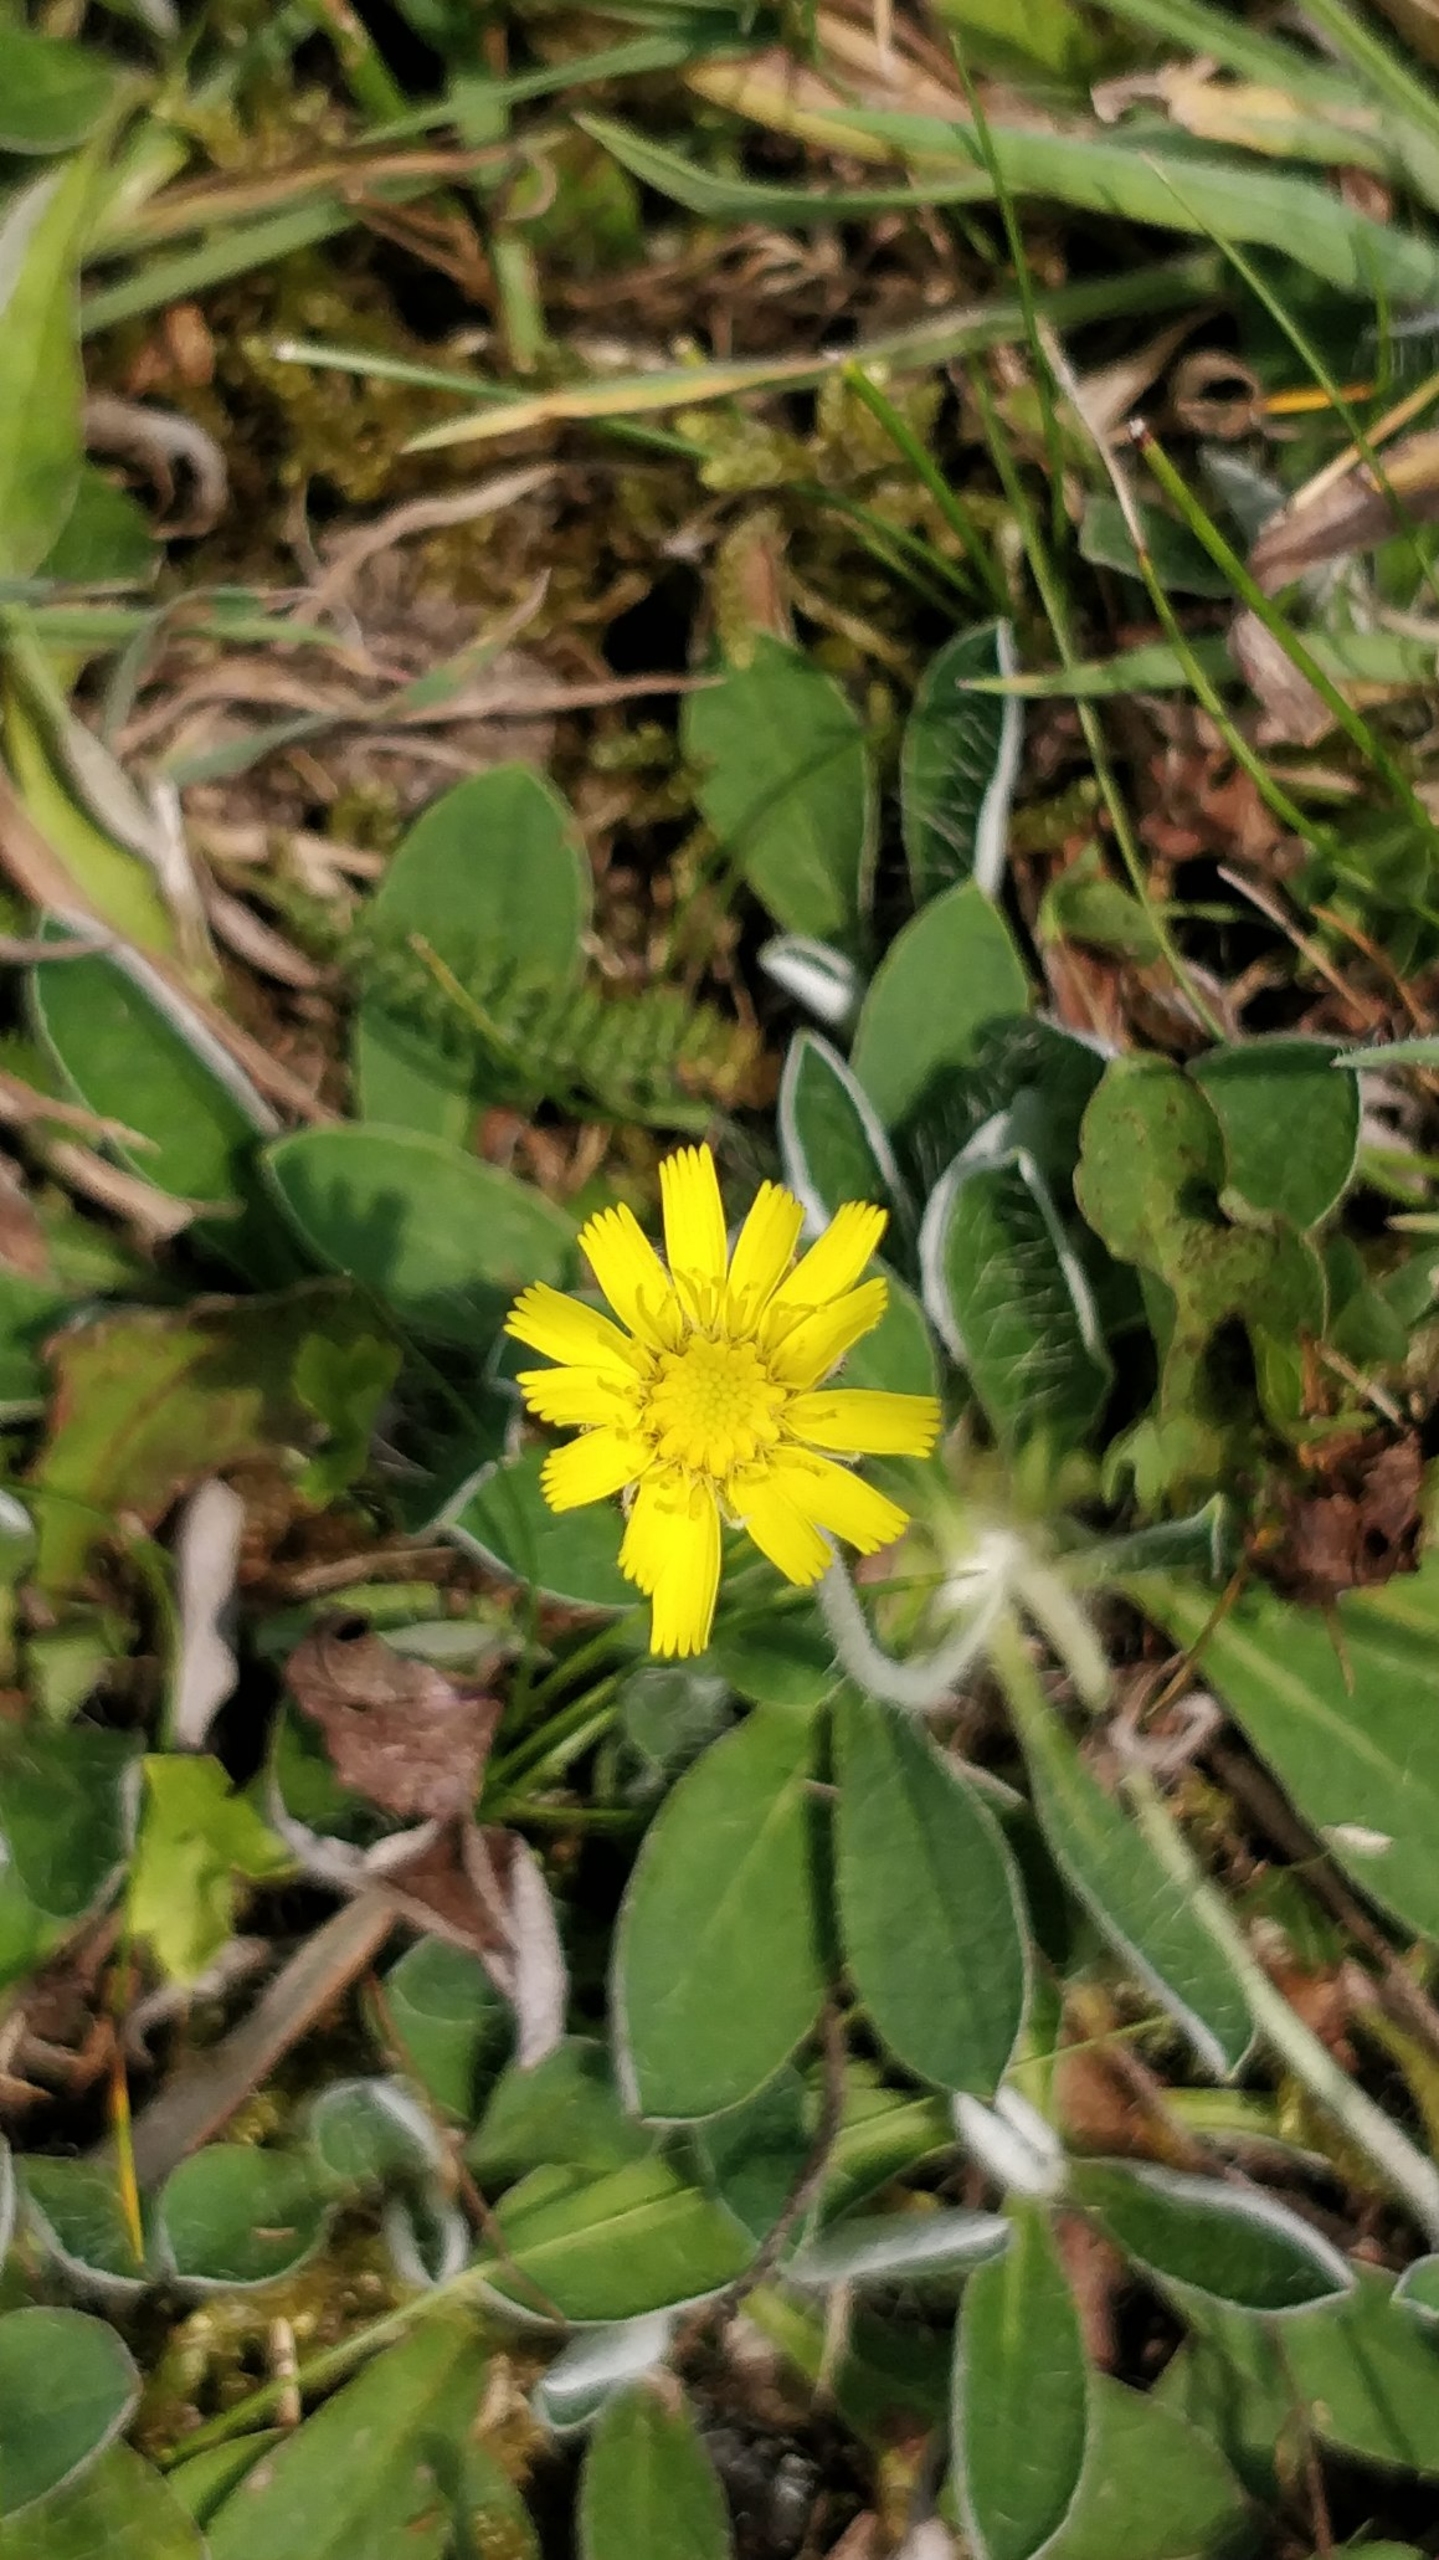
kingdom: Plantae
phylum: Tracheophyta
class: Magnoliopsida
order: Asterales
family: Asteraceae
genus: Pilosella
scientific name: Pilosella officinarum
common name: Håret høgeurt
